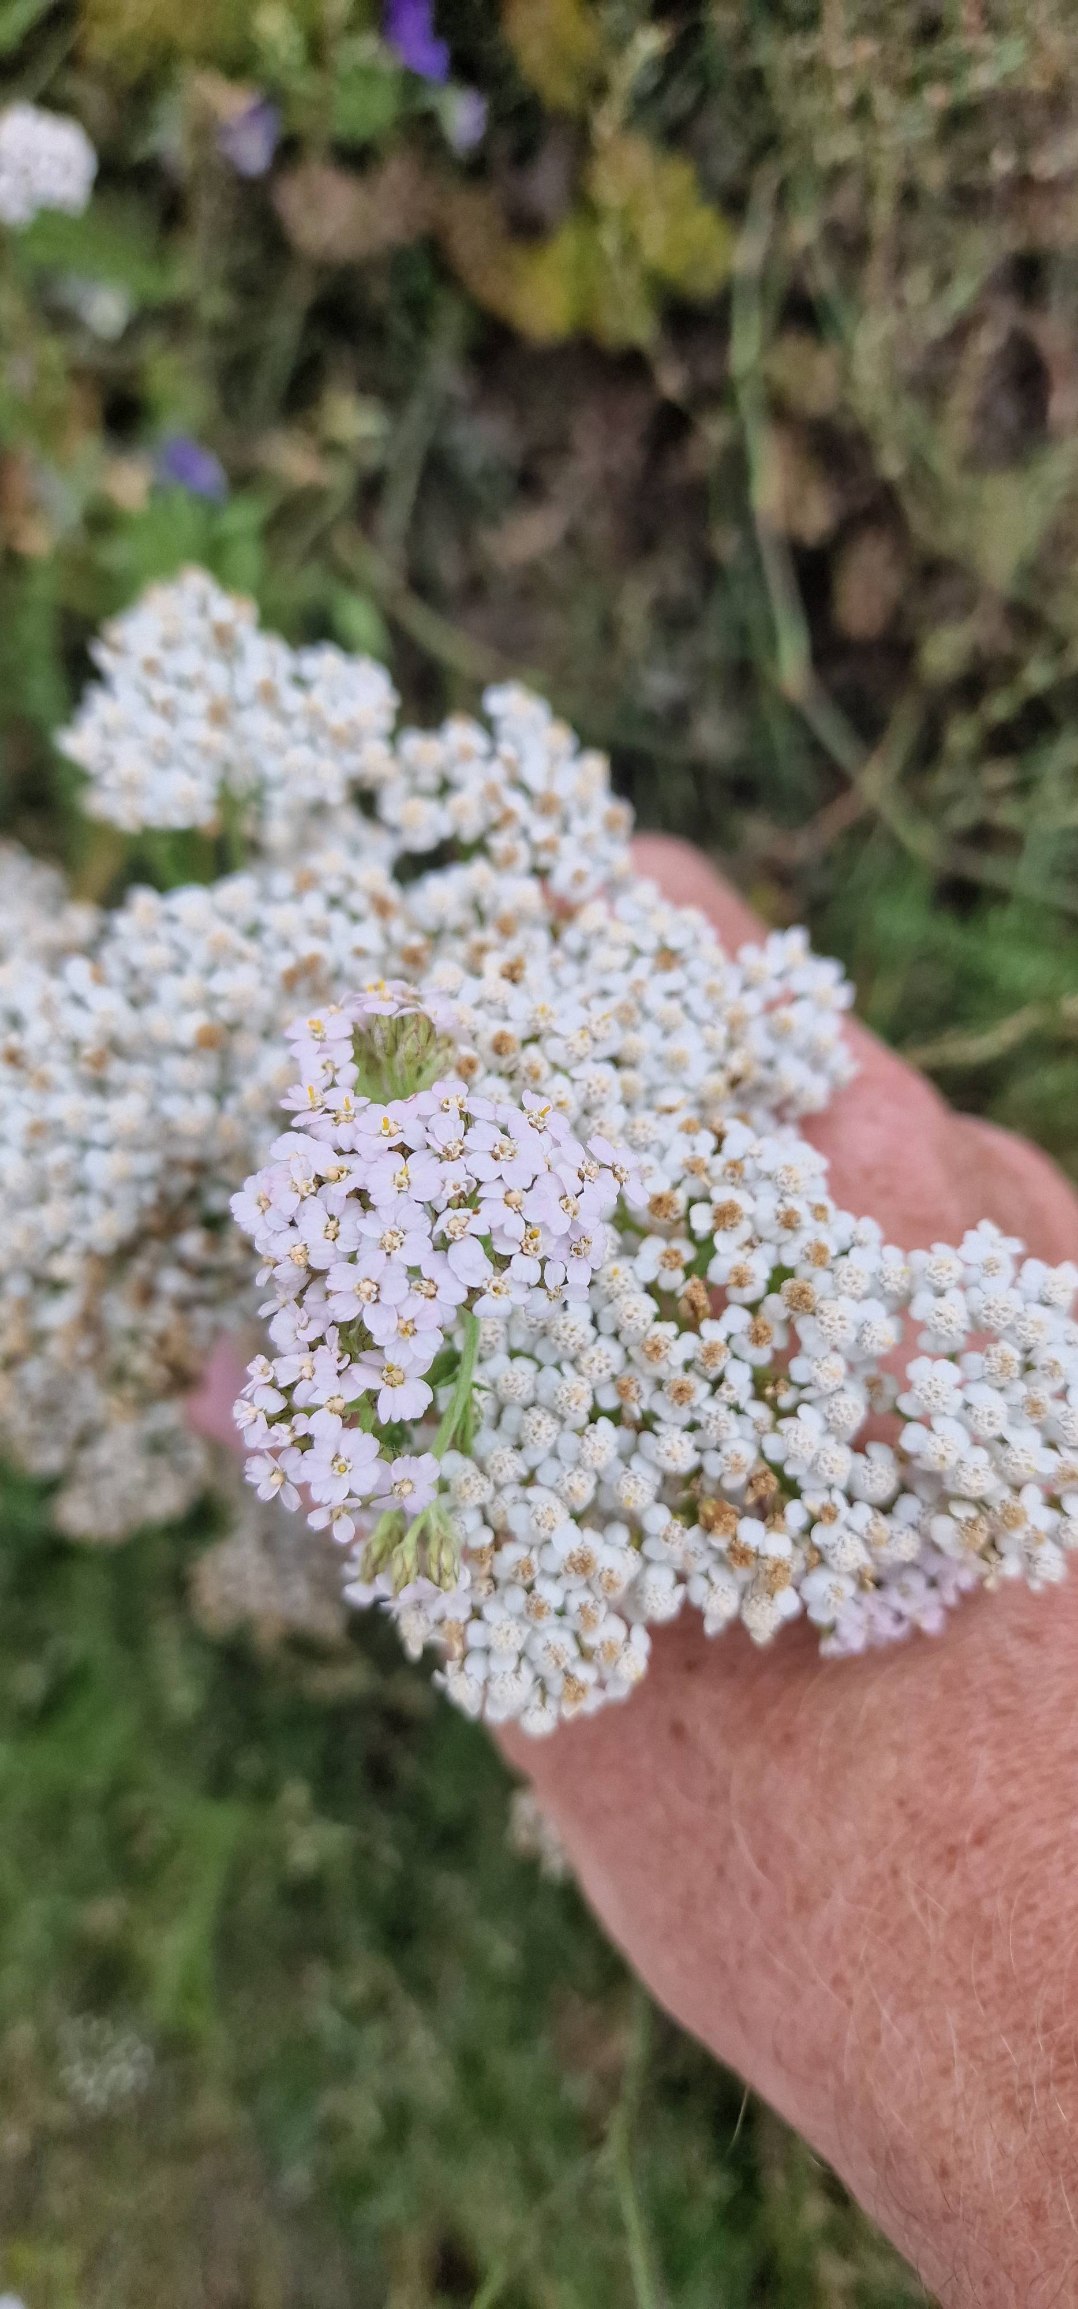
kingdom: Plantae
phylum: Tracheophyta
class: Magnoliopsida
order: Asterales
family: Asteraceae
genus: Achillea
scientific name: Achillea millefolium
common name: Almindelig røllike
